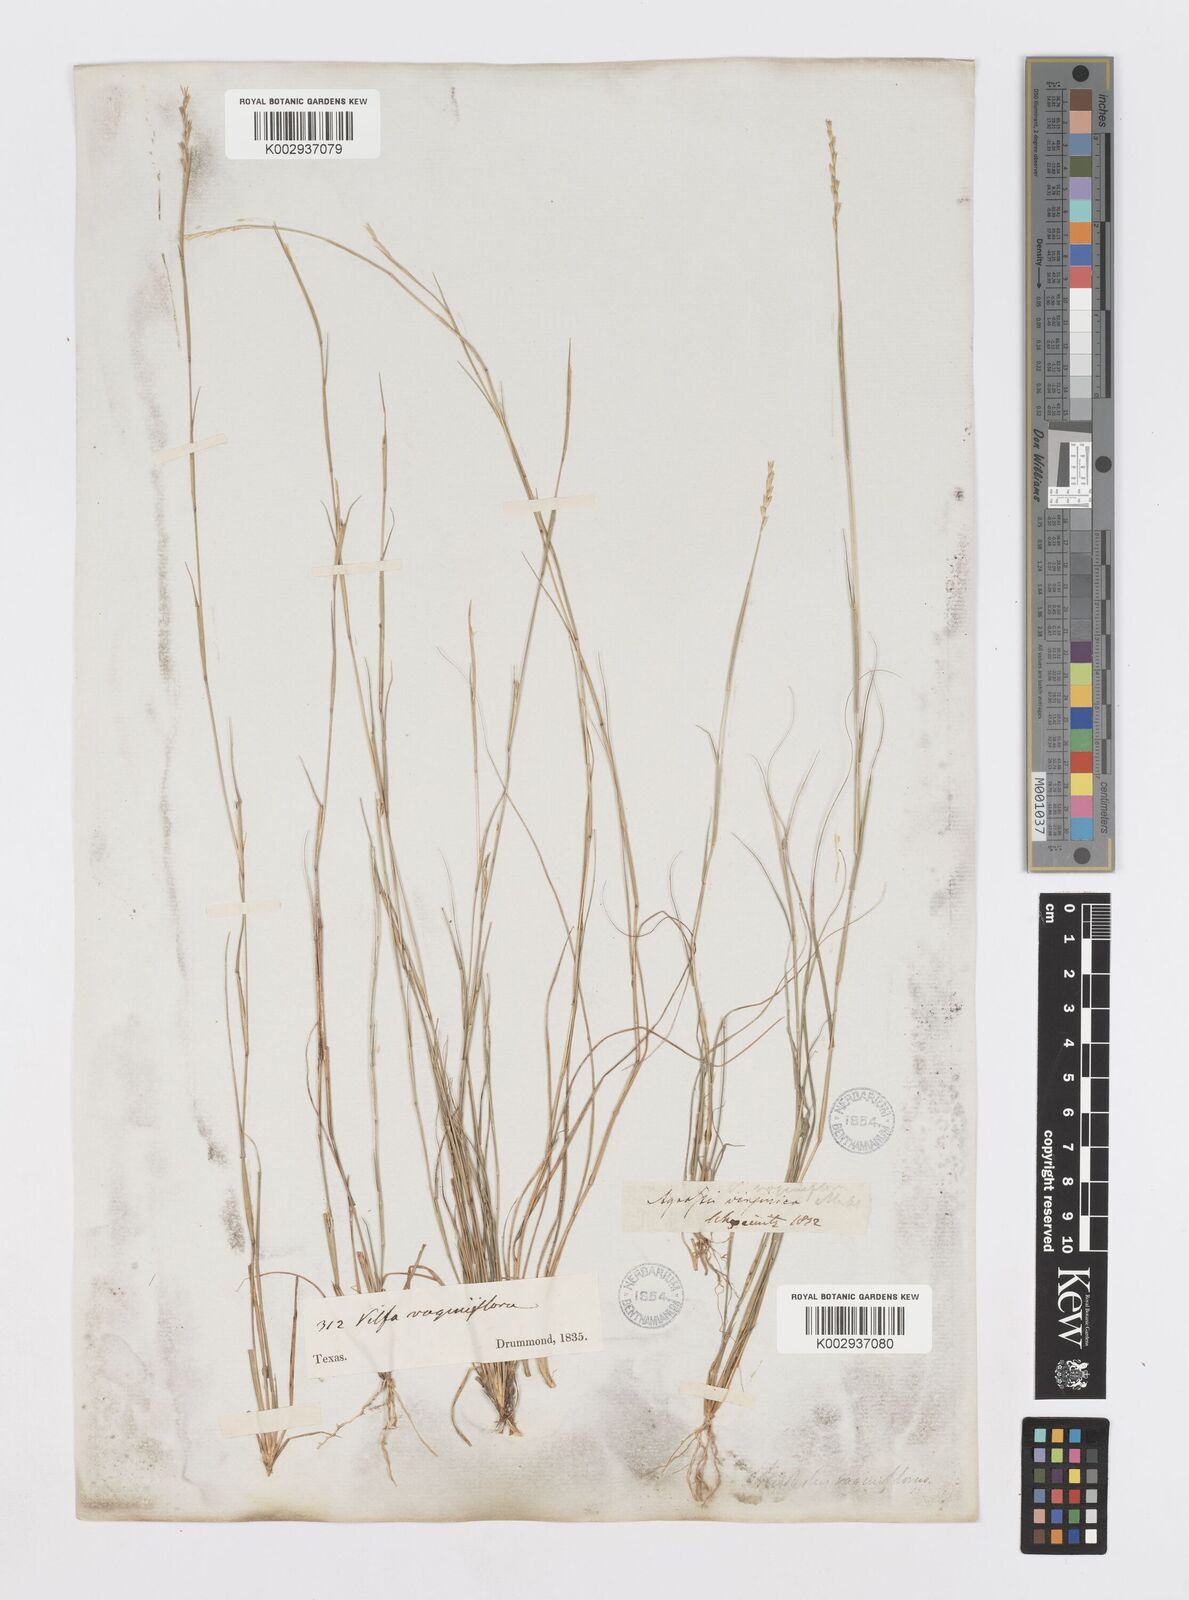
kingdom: Plantae
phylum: Tracheophyta
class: Liliopsida
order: Poales
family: Poaceae
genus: Sporobolus
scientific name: Sporobolus vaginiflorus
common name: Poverty dropseed
